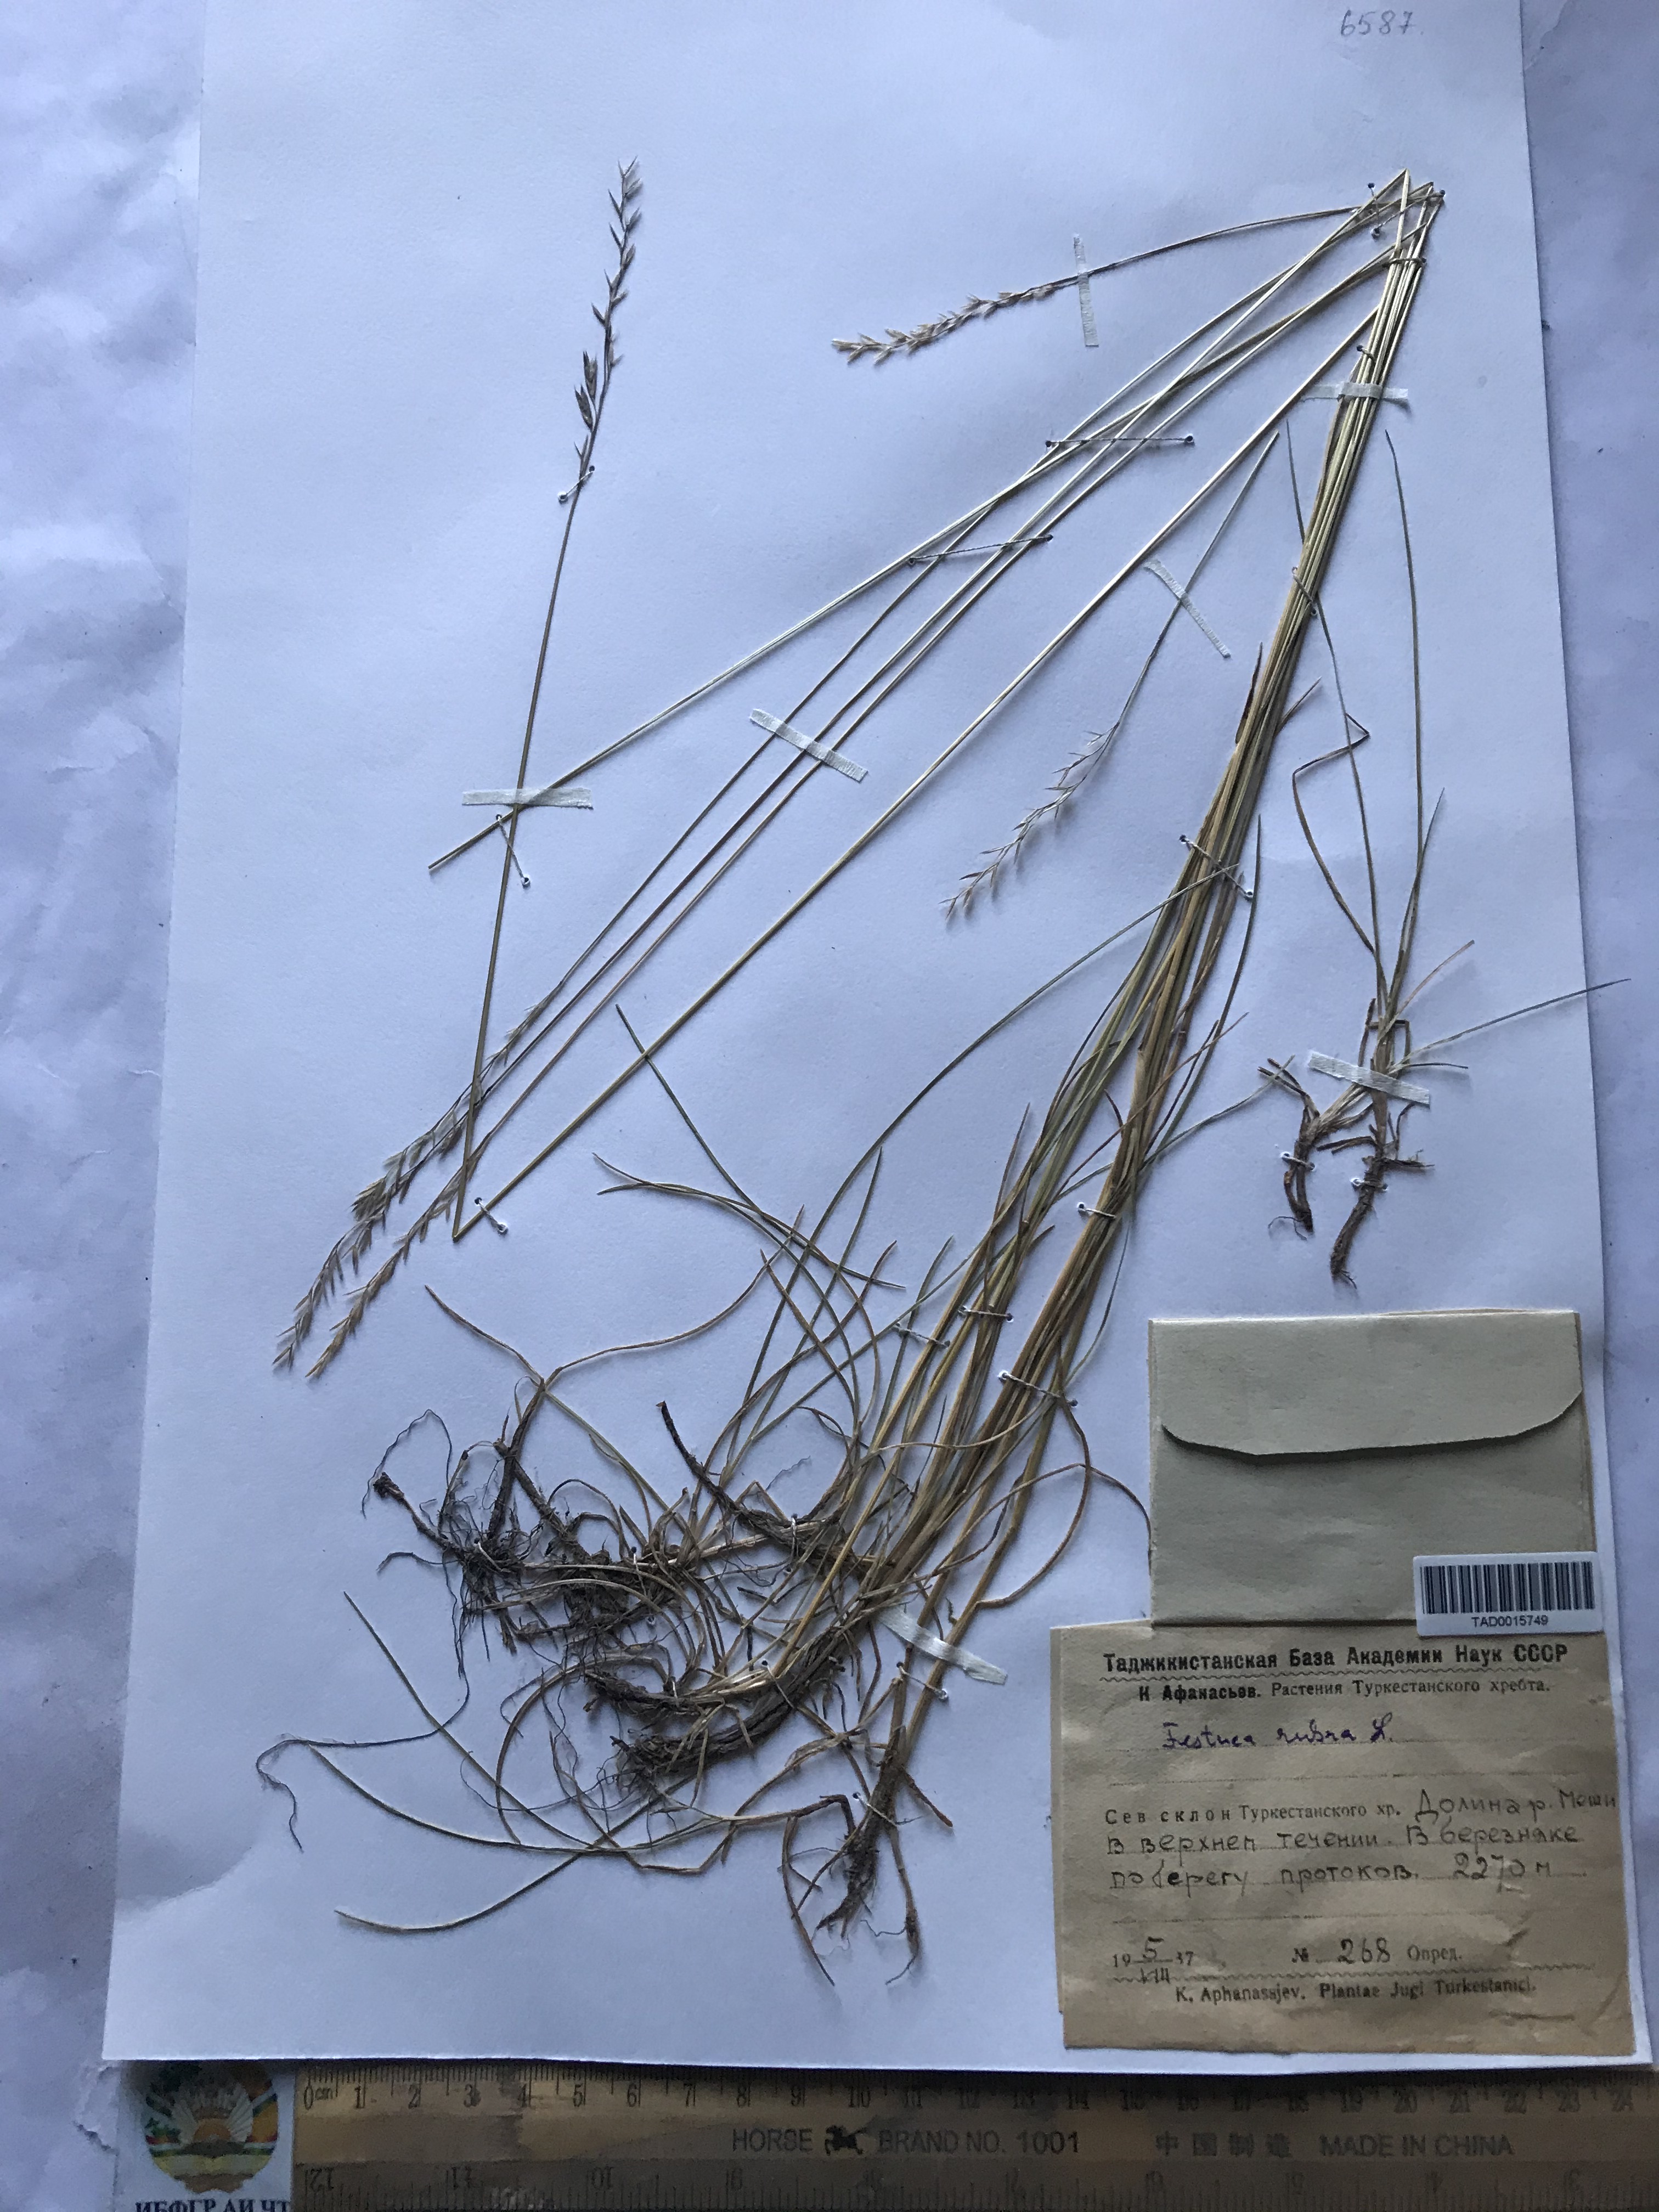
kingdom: Plantae
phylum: Tracheophyta
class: Liliopsida
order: Poales
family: Poaceae
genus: Festuca
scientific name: Festuca rubra
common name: Red fescue
